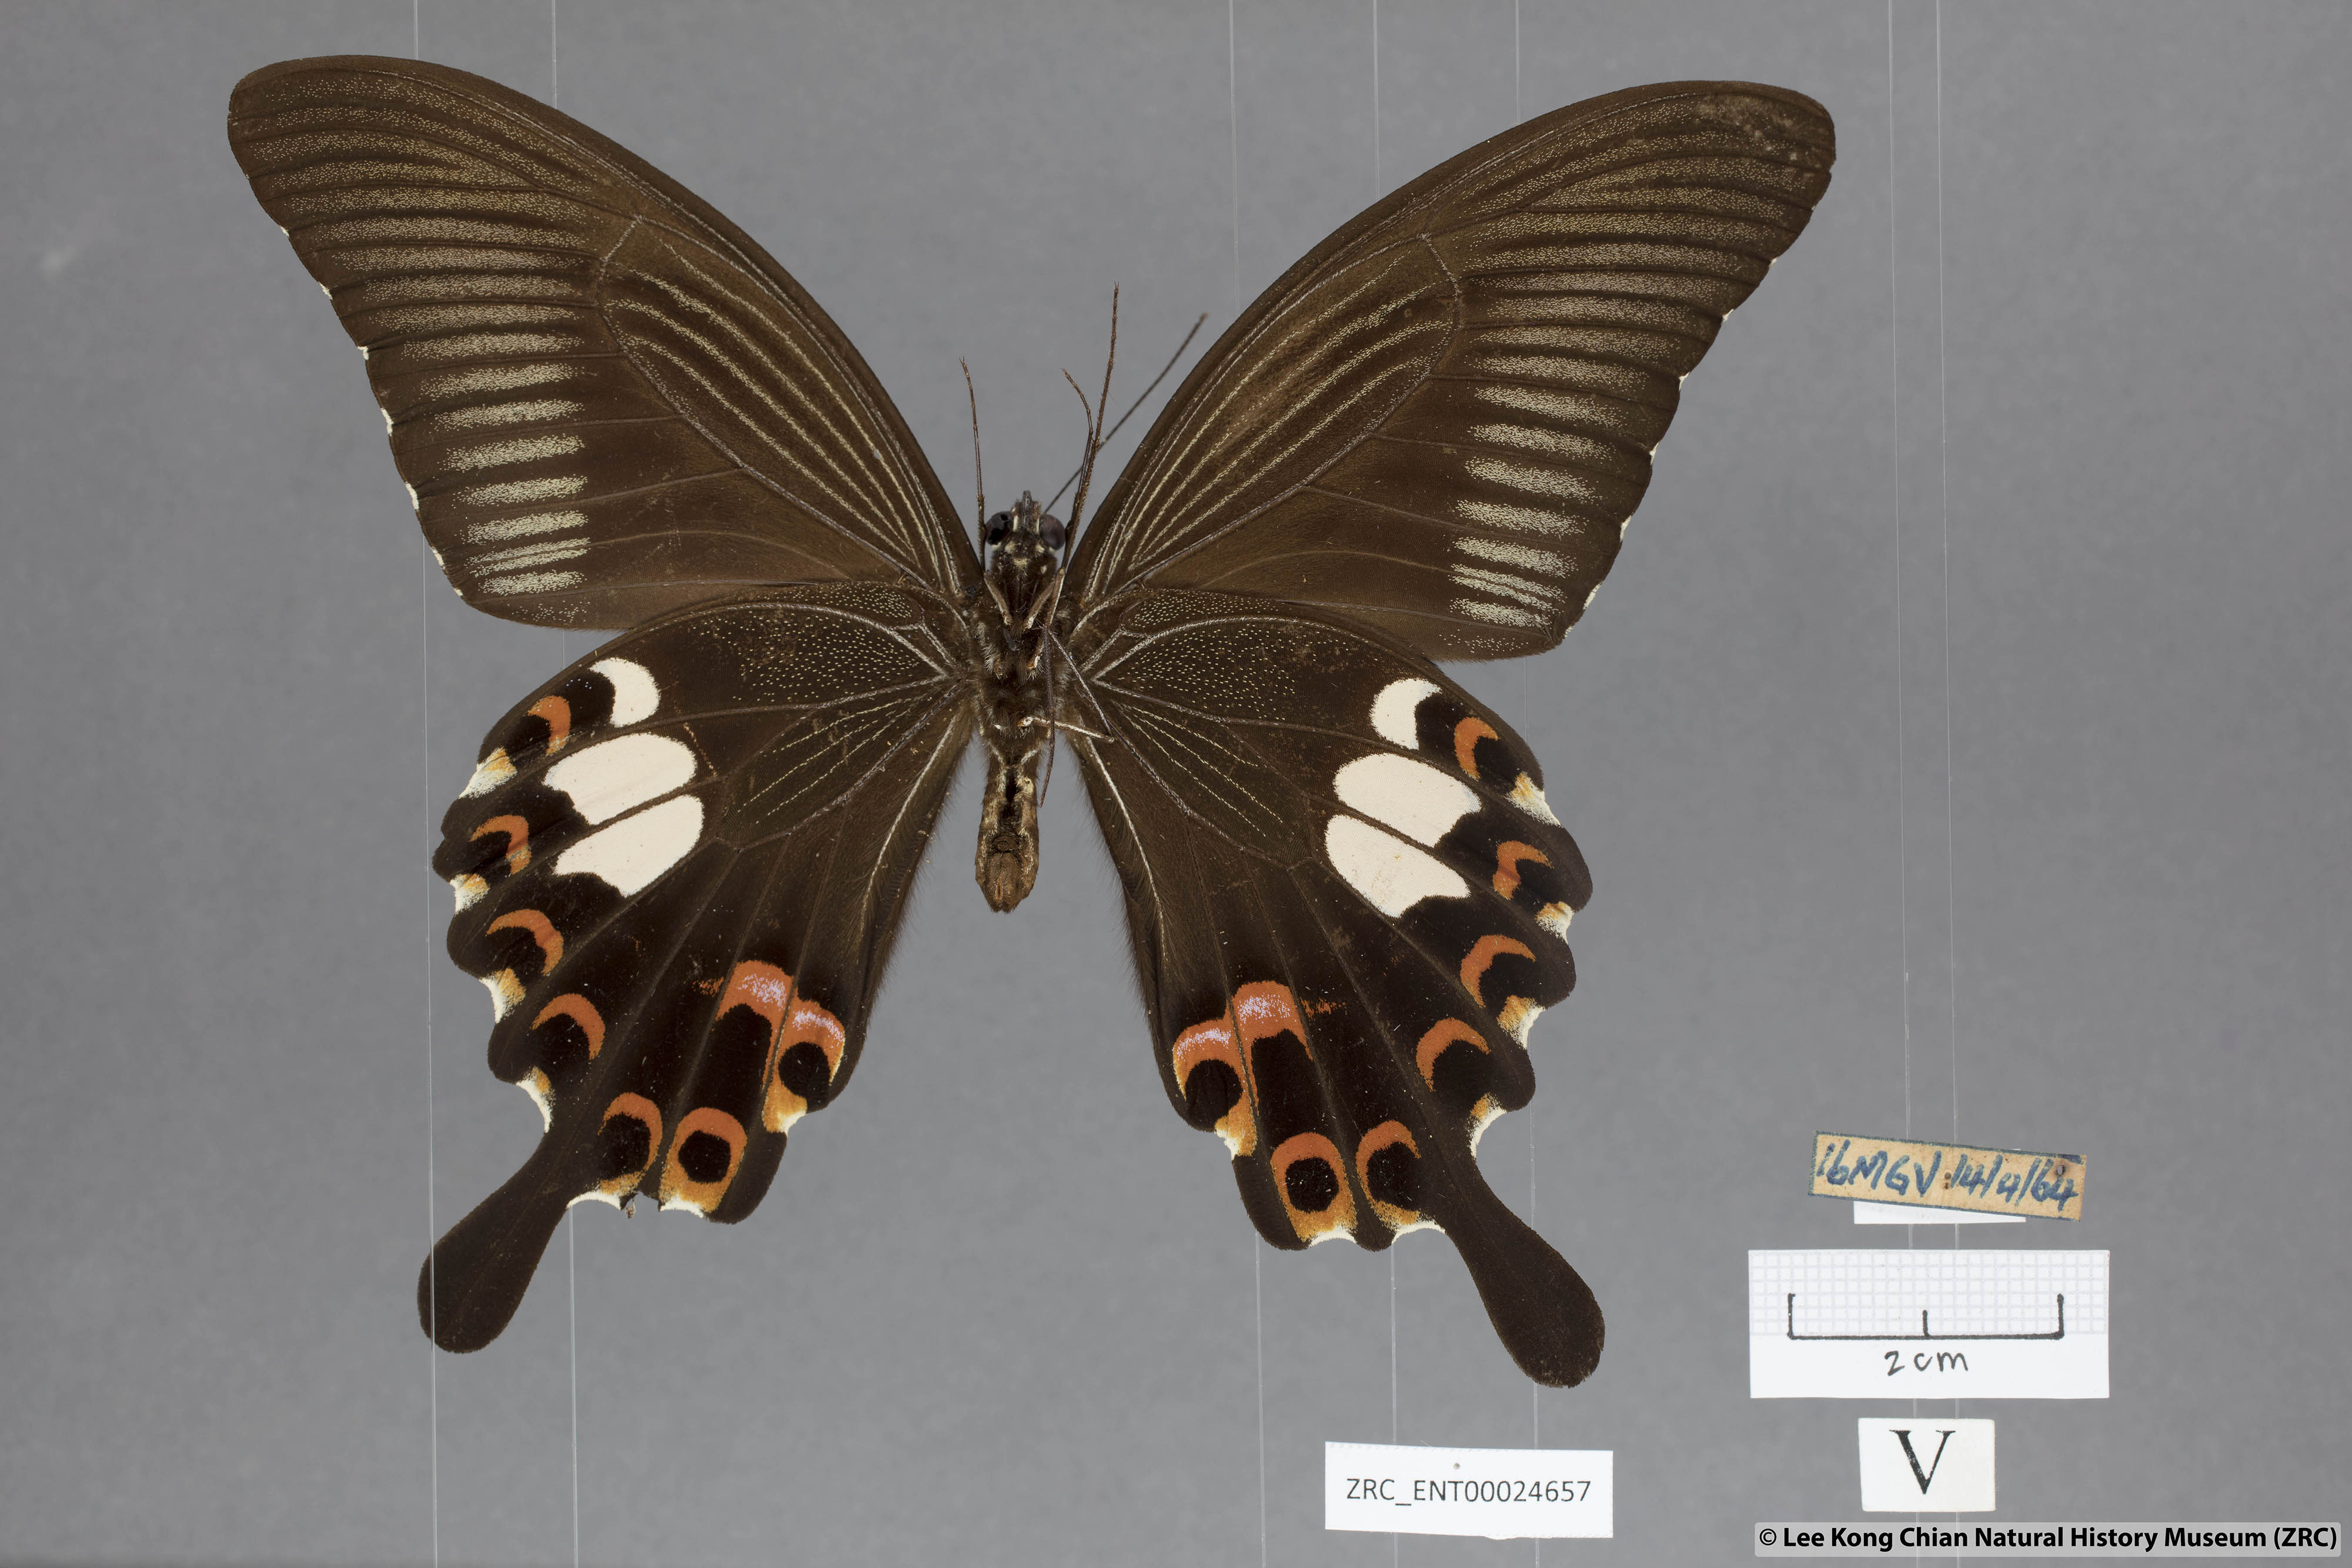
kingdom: Animalia
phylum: Arthropoda
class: Insecta
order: Lepidoptera
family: Papilionidae
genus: Papilio
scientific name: Papilio helenus
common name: Red helen
